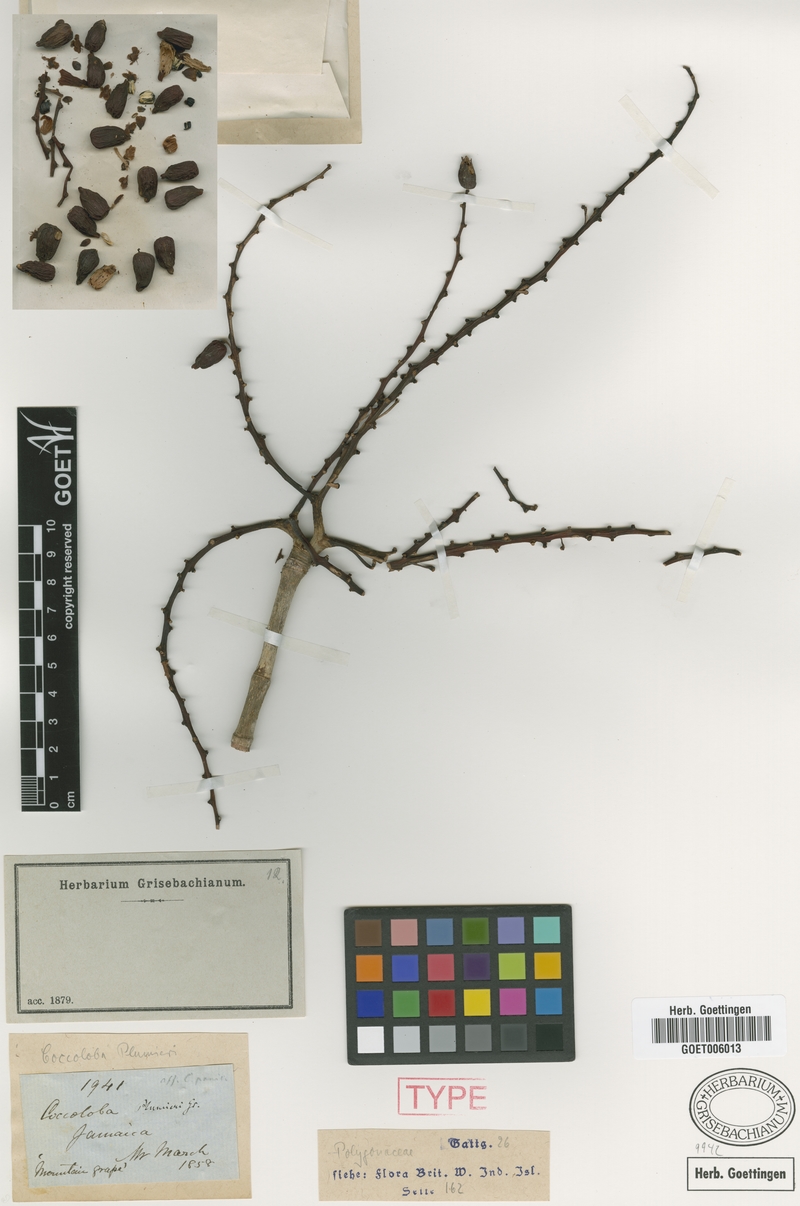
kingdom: Plantae
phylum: Tracheophyta
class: Magnoliopsida
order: Caryophyllales
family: Polygonaceae
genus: Coccoloba
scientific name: Coccoloba plumieri
